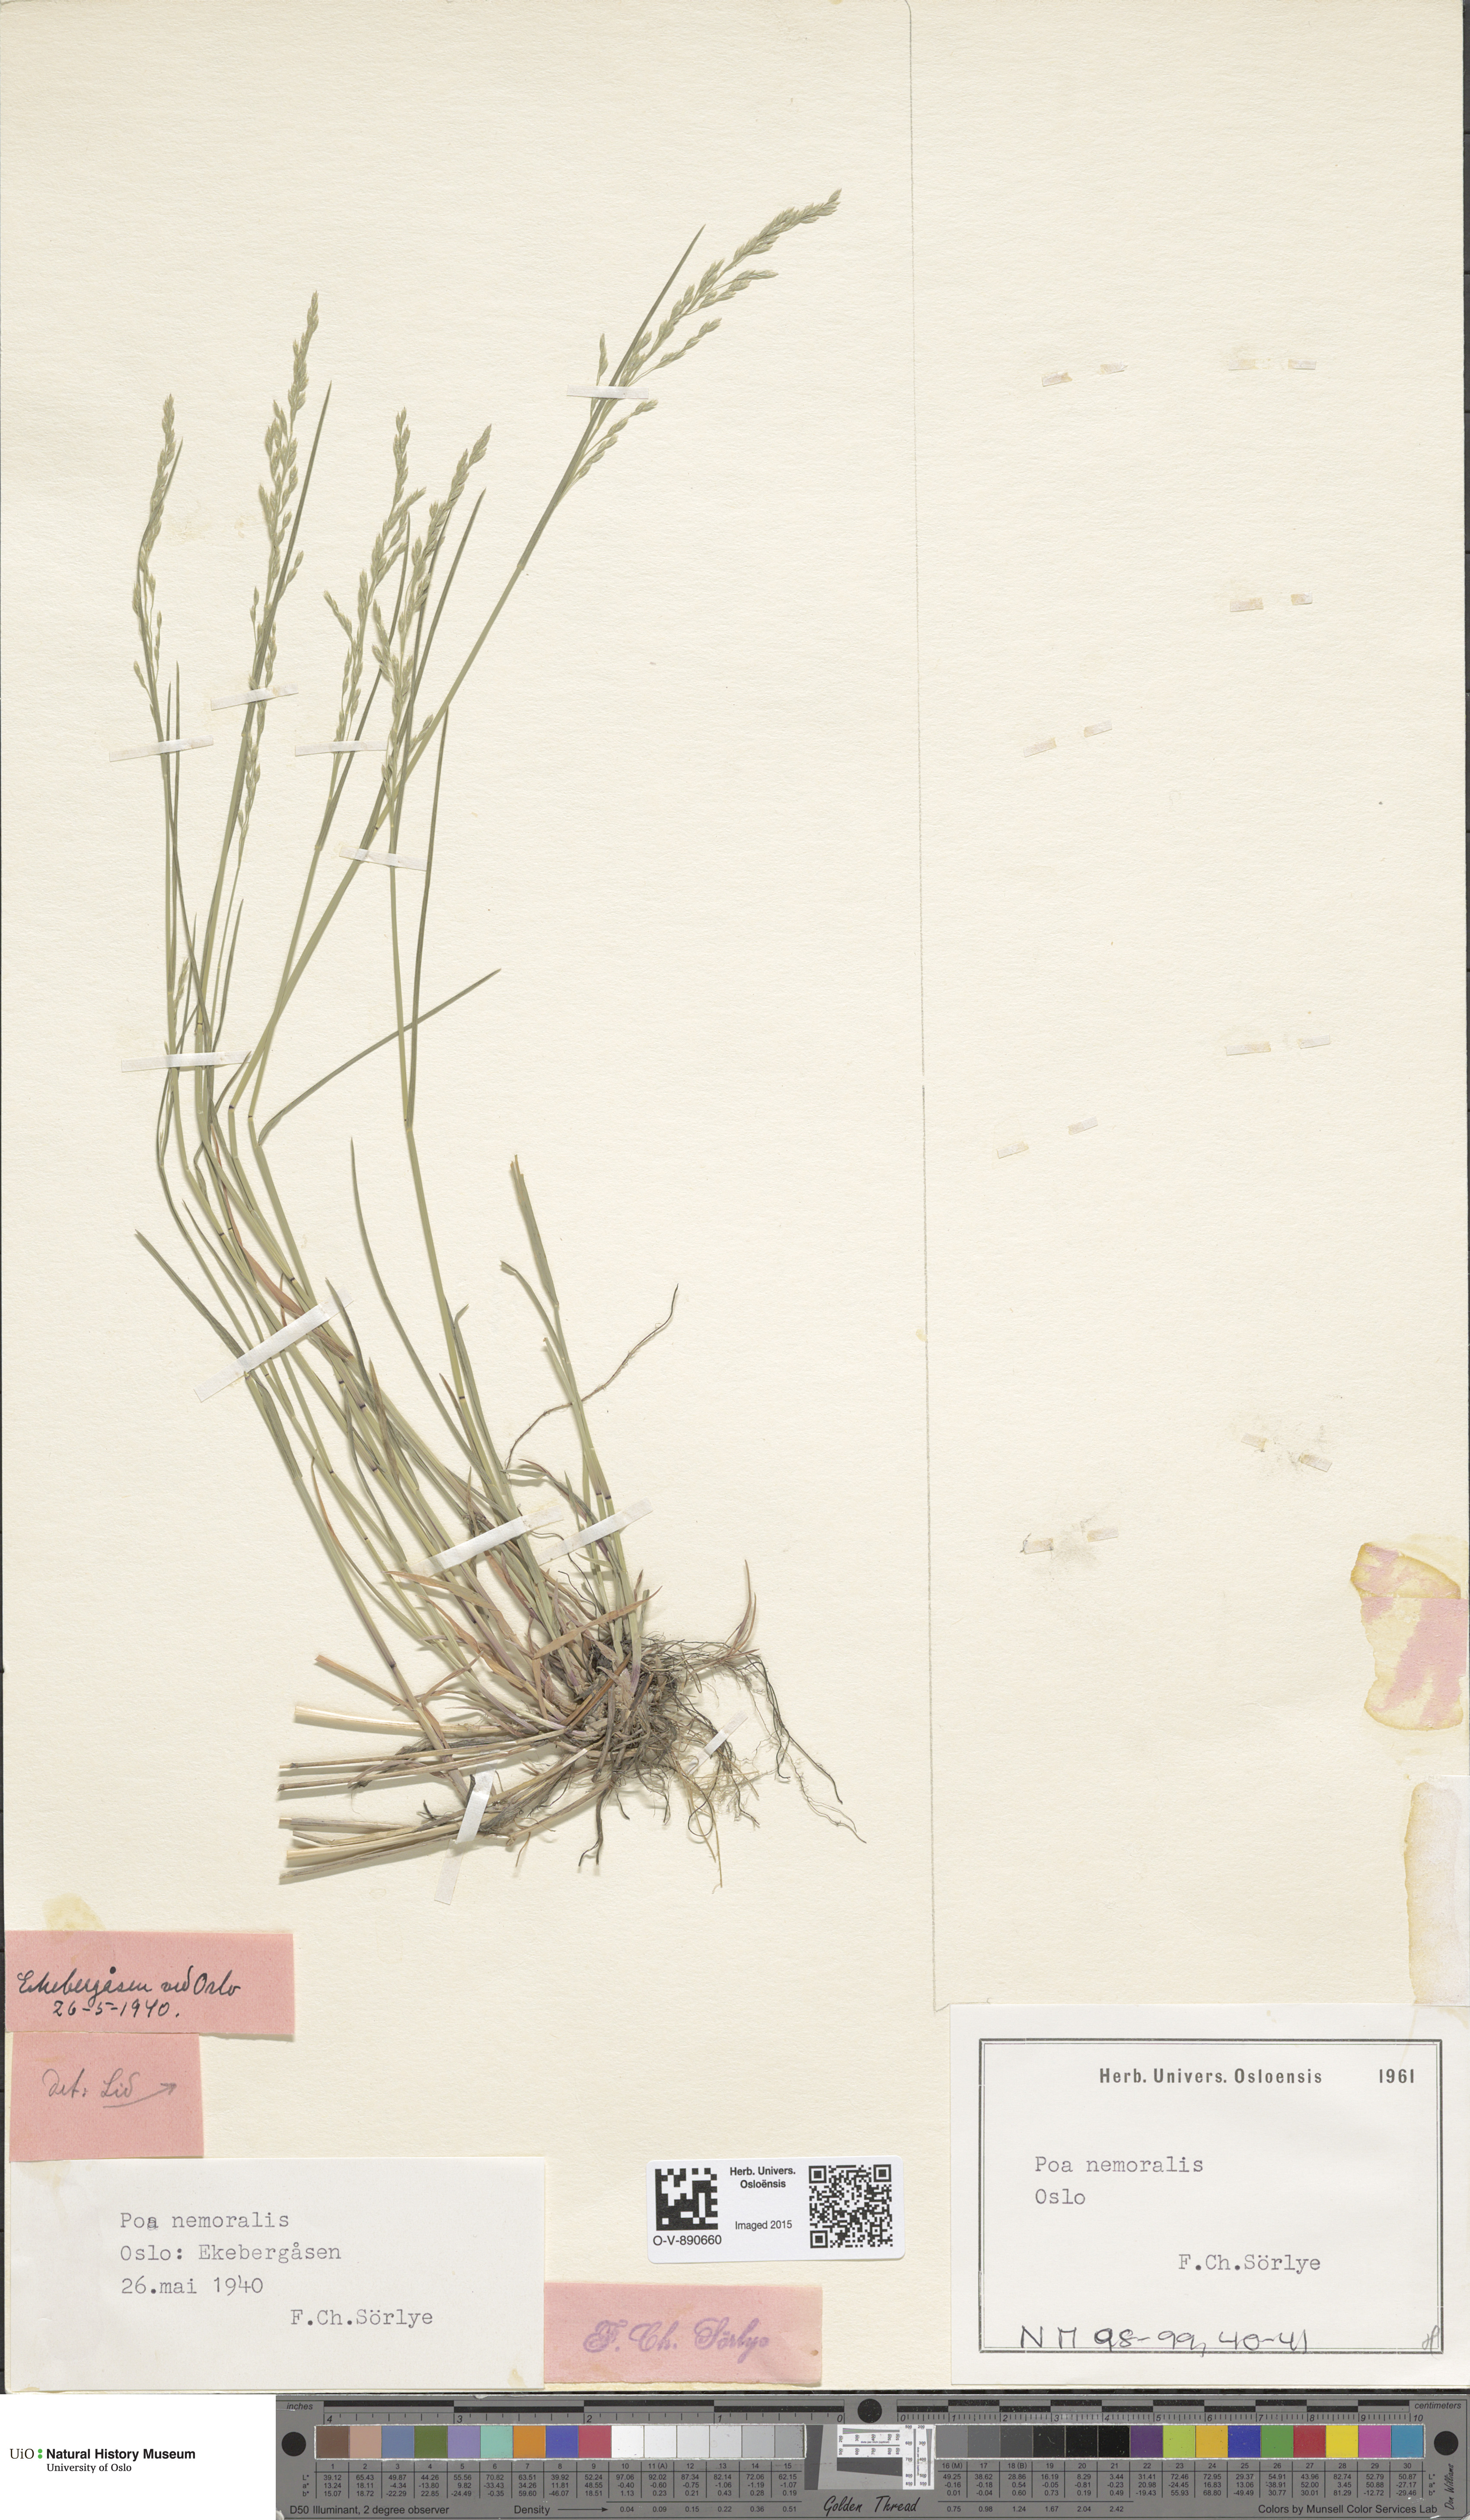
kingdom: Plantae
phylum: Tracheophyta
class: Liliopsida
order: Poales
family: Poaceae
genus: Poa
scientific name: Poa nemoralis
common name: Wood bluegrass
